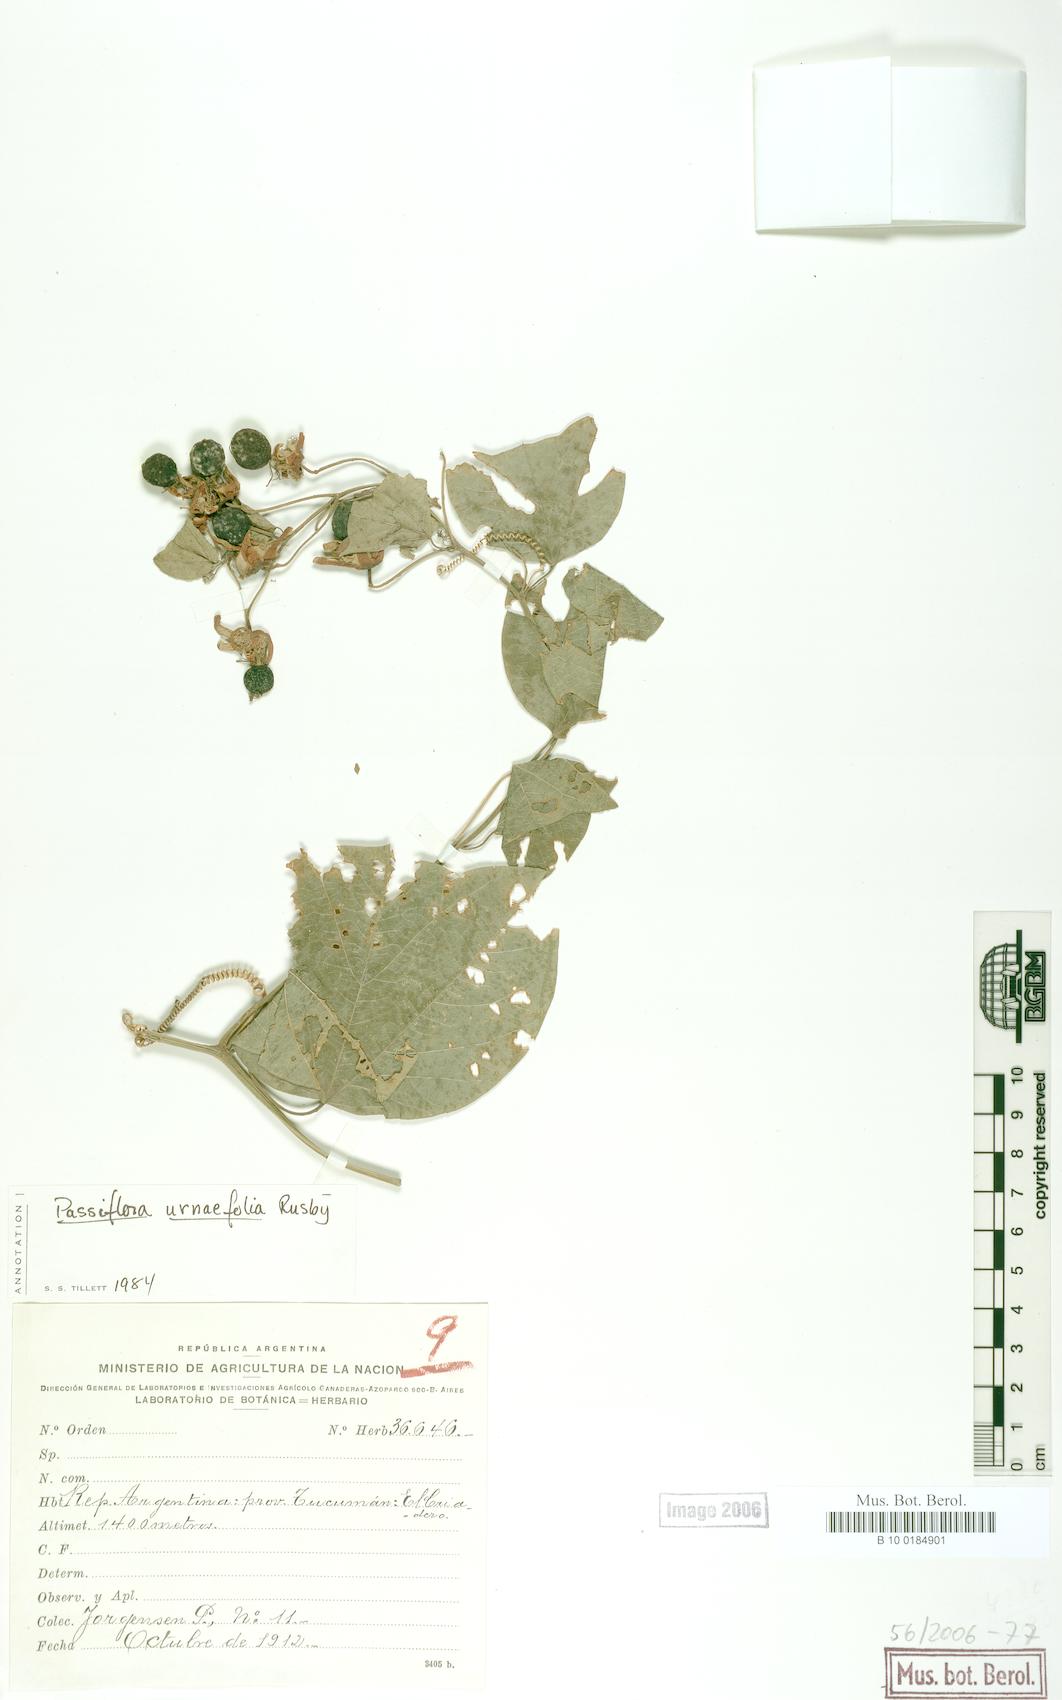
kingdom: Plantae
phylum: Tracheophyta
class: Magnoliopsida
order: Malpighiales
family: Passifloraceae
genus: Passiflora
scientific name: Passiflora urnifolia
